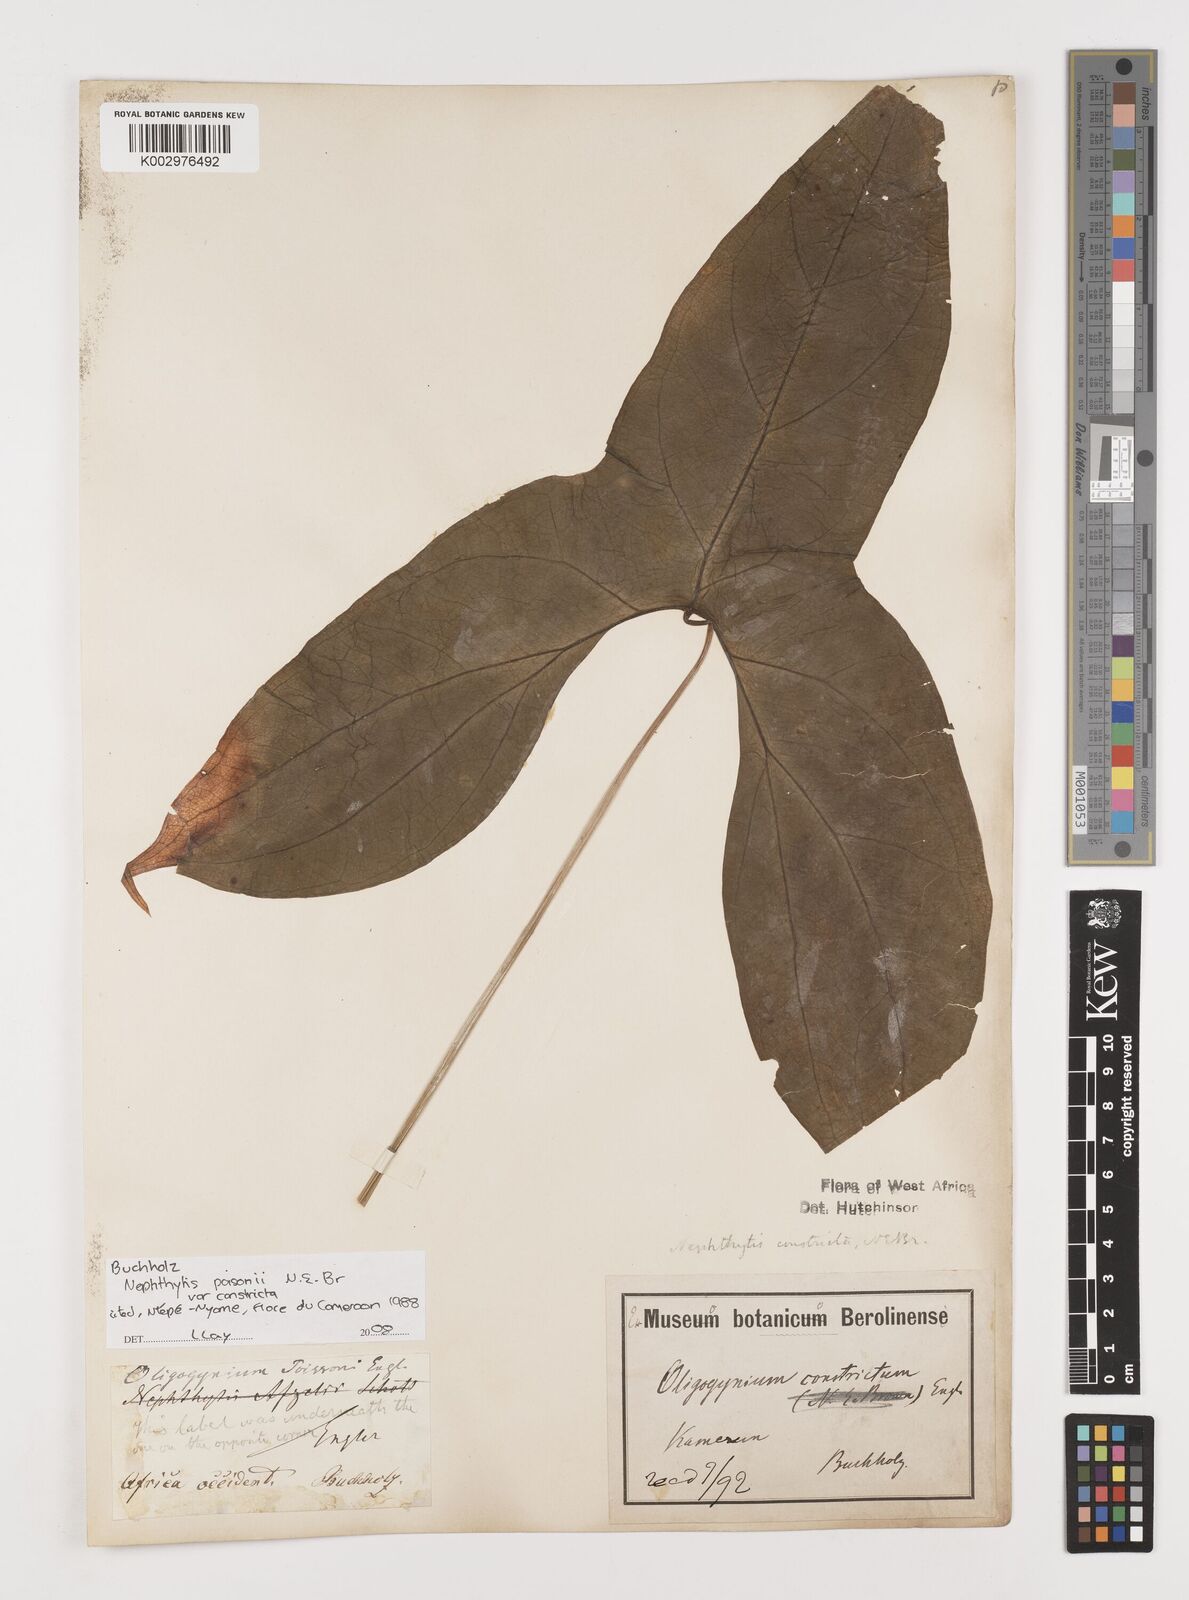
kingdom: Plantae
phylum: Tracheophyta
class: Liliopsida
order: Alismatales
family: Araceae
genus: Nephthytis
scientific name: Nephthytis poissonii
